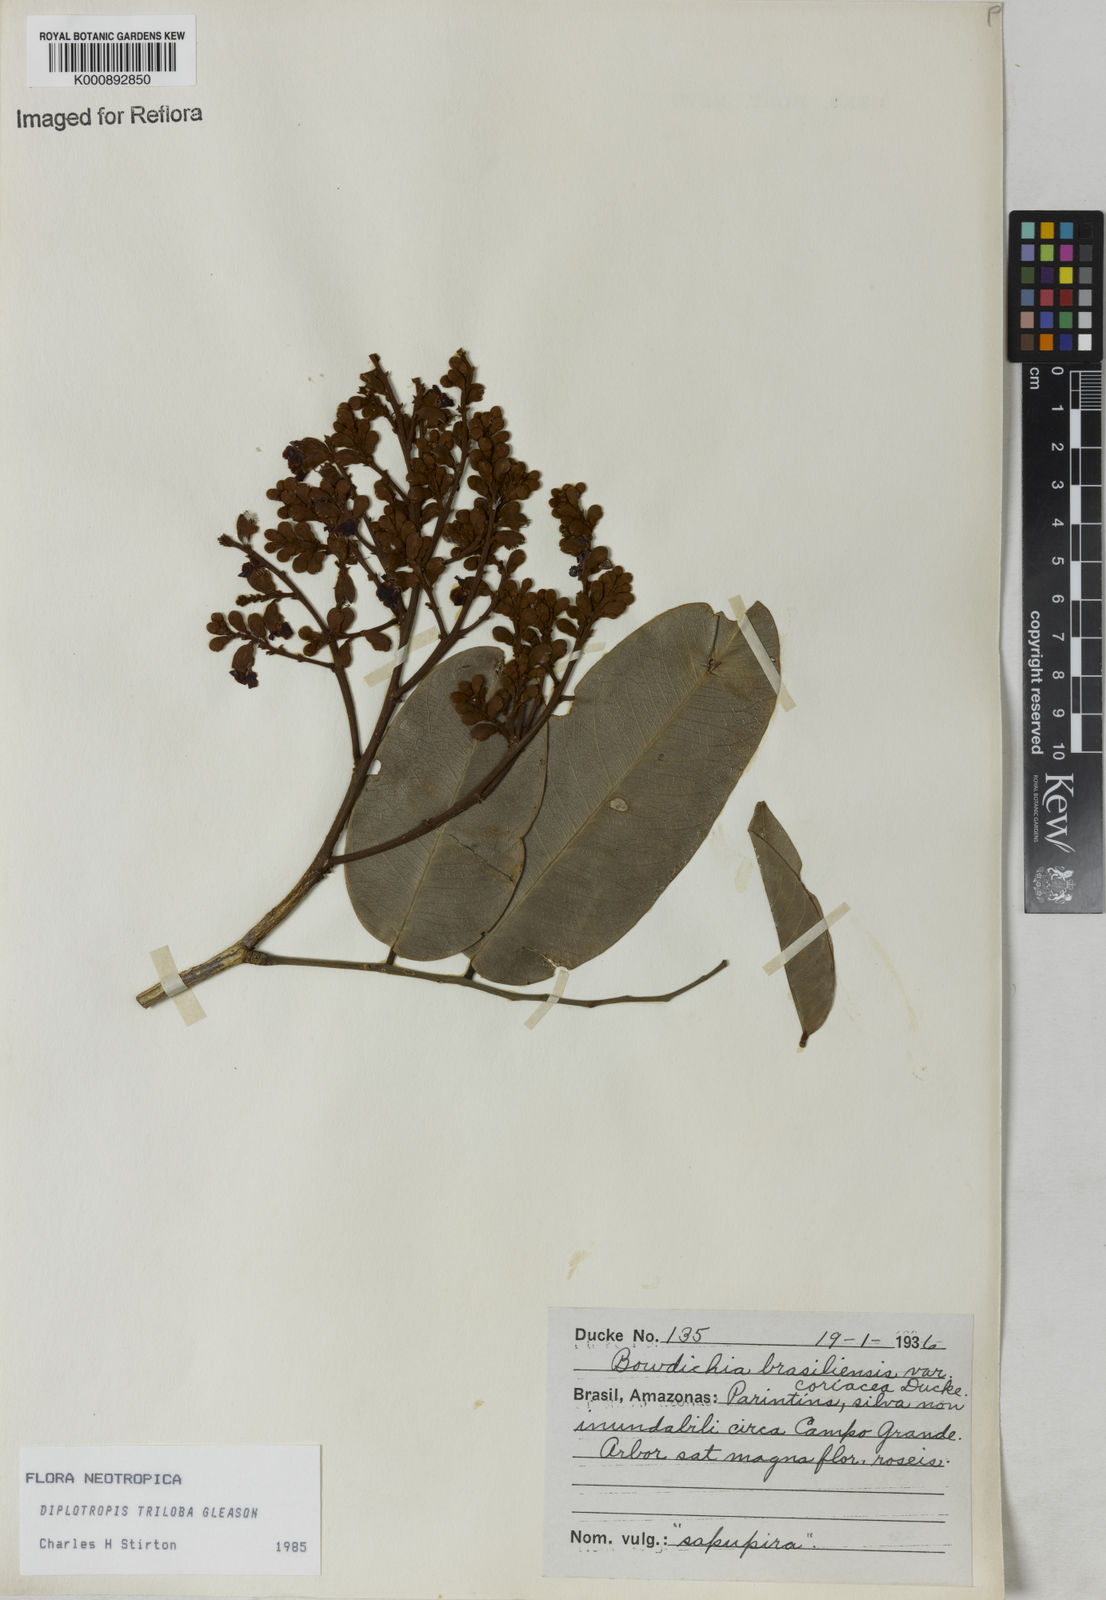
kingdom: Plantae
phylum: Tracheophyta
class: Magnoliopsida
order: Fabales
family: Fabaceae
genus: Diplotropis
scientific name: Diplotropis triloba
